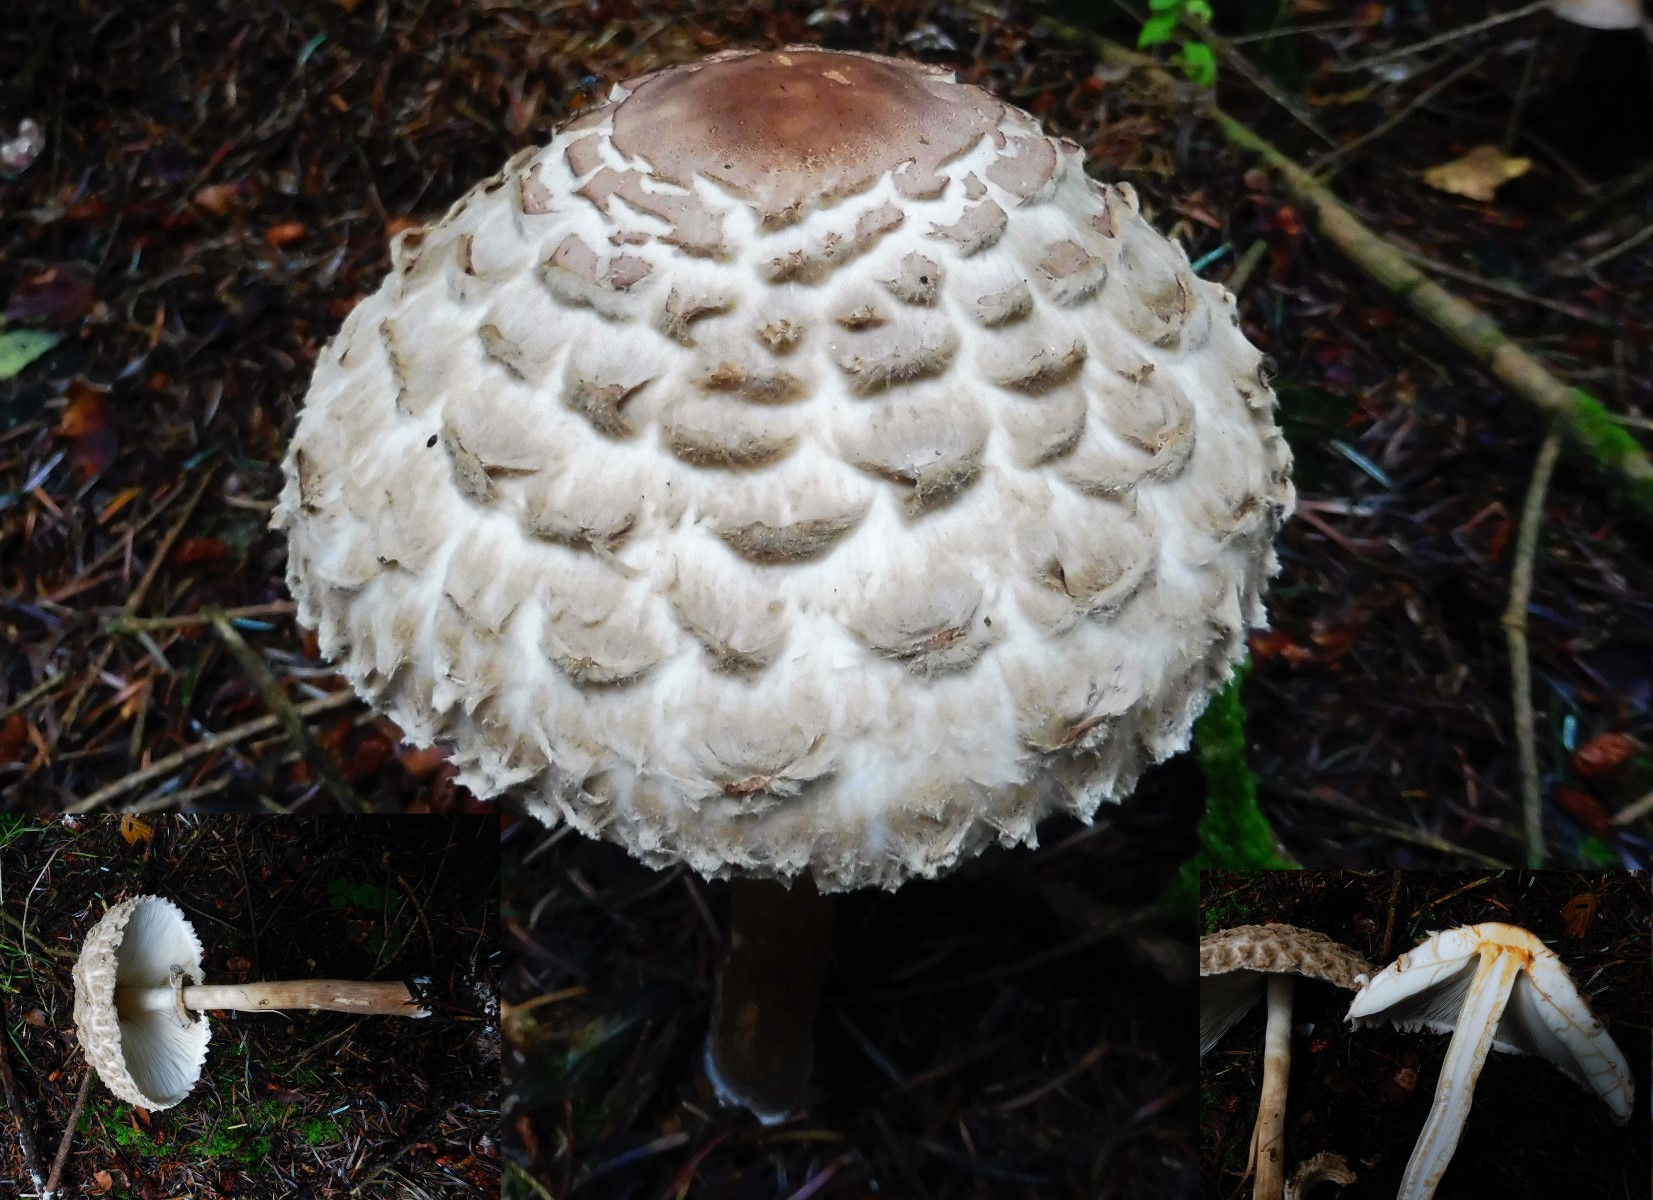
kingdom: Fungi
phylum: Basidiomycota
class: Agaricomycetes
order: Agaricales
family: Agaricaceae
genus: Chlorophyllum
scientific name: Chlorophyllum olivieri
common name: almindelig rabarberhat
